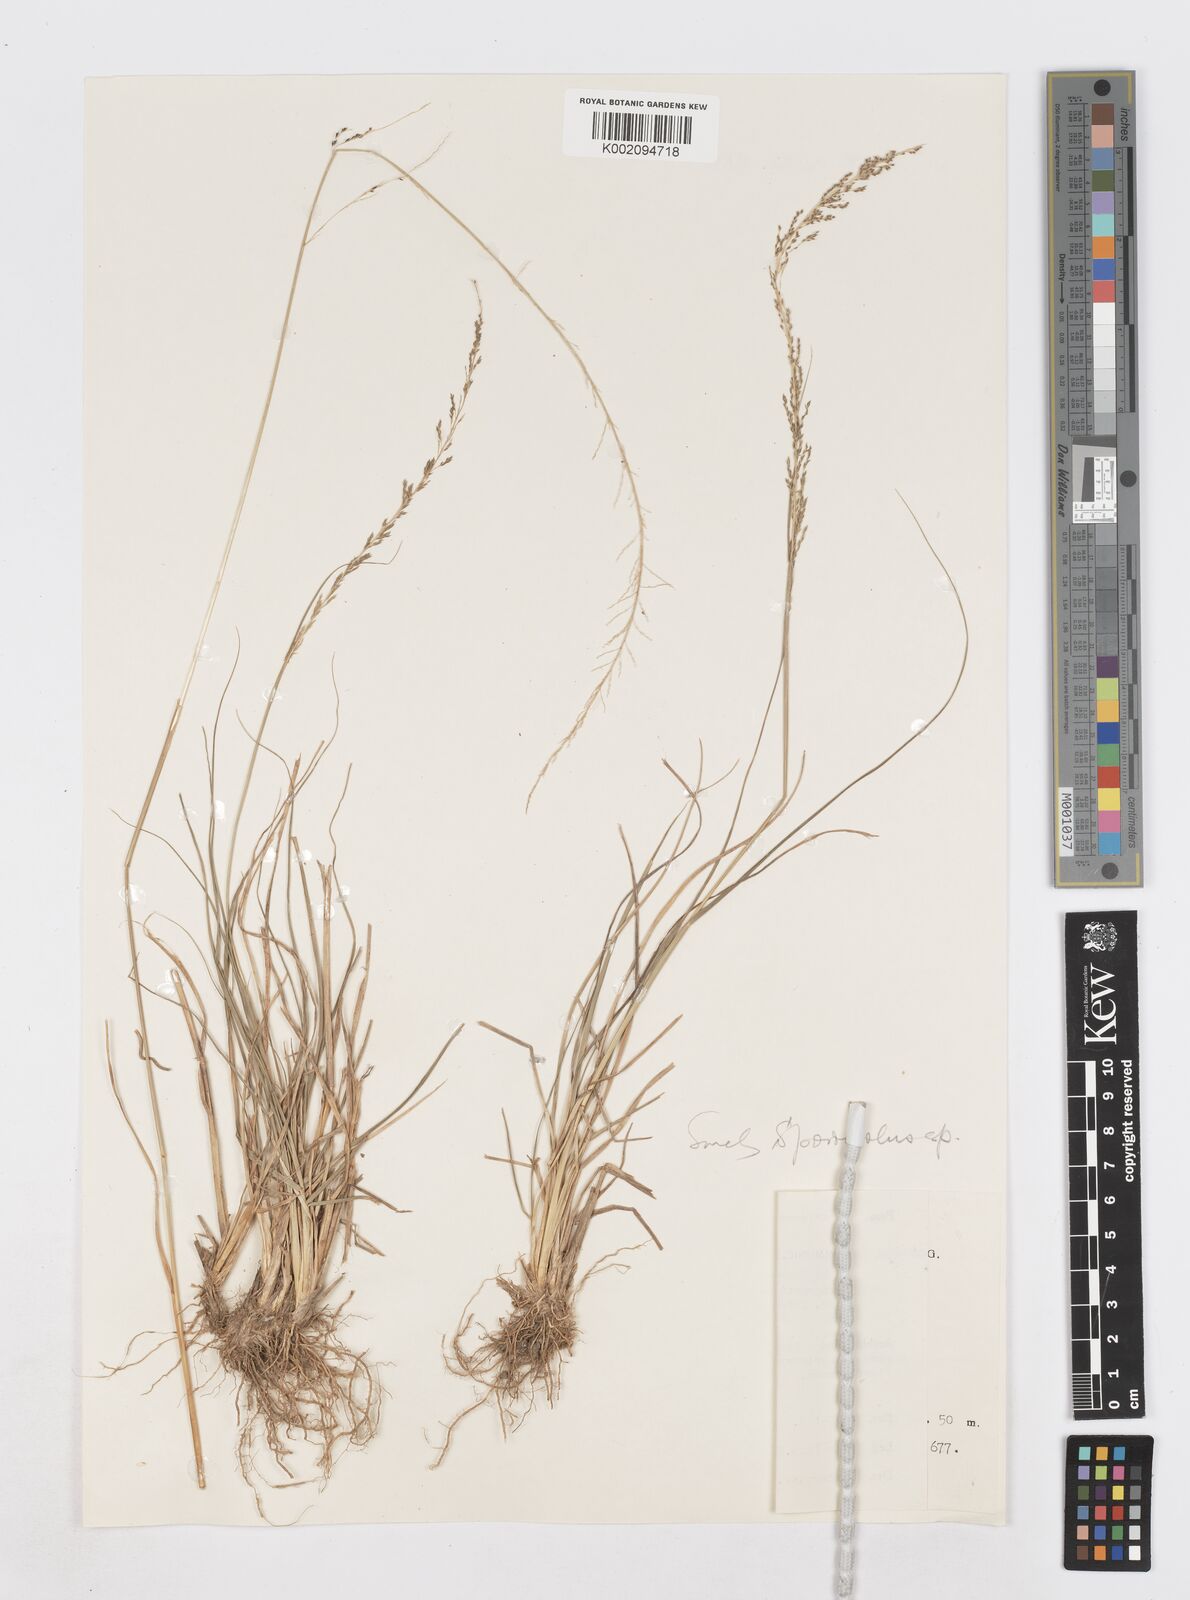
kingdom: Plantae
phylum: Tracheophyta
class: Liliopsida
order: Poales
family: Poaceae
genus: Sporobolus
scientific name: Sporobolus diandrus
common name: Tussock dropseed
